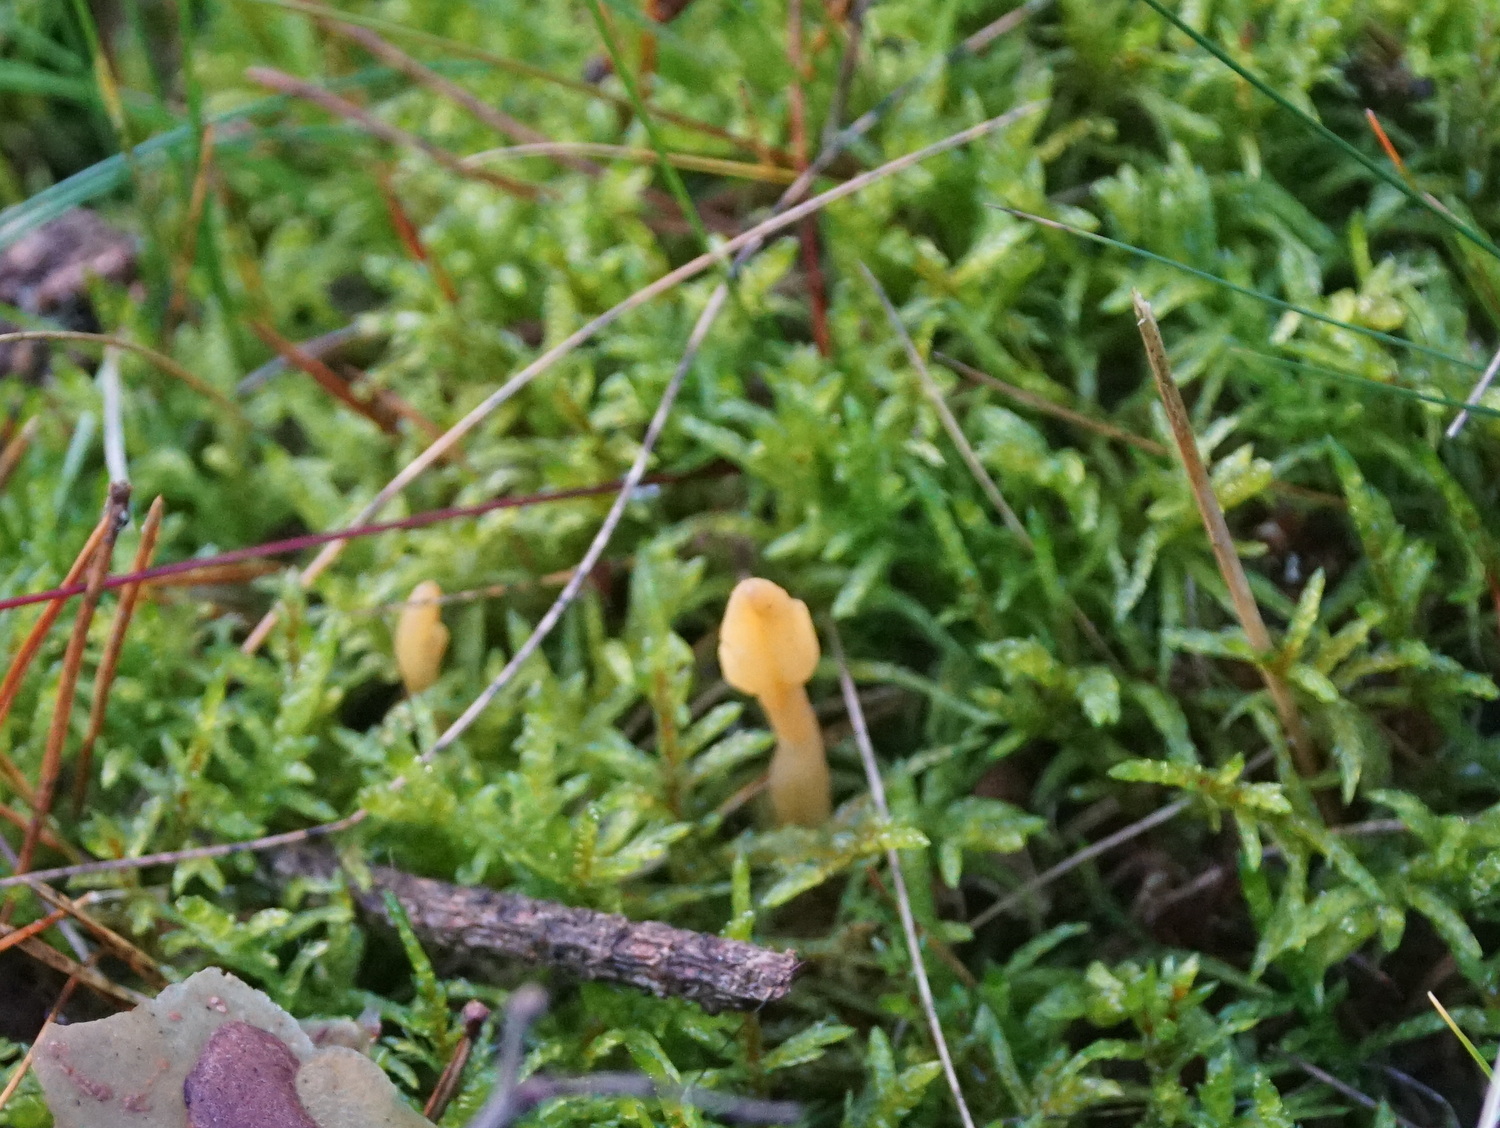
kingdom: Fungi
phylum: Ascomycota
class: Leotiomycetes
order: Rhytismatales
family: Cudoniaceae
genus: Spathularia
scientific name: Spathularia flavida
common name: gul spatelsvamp
